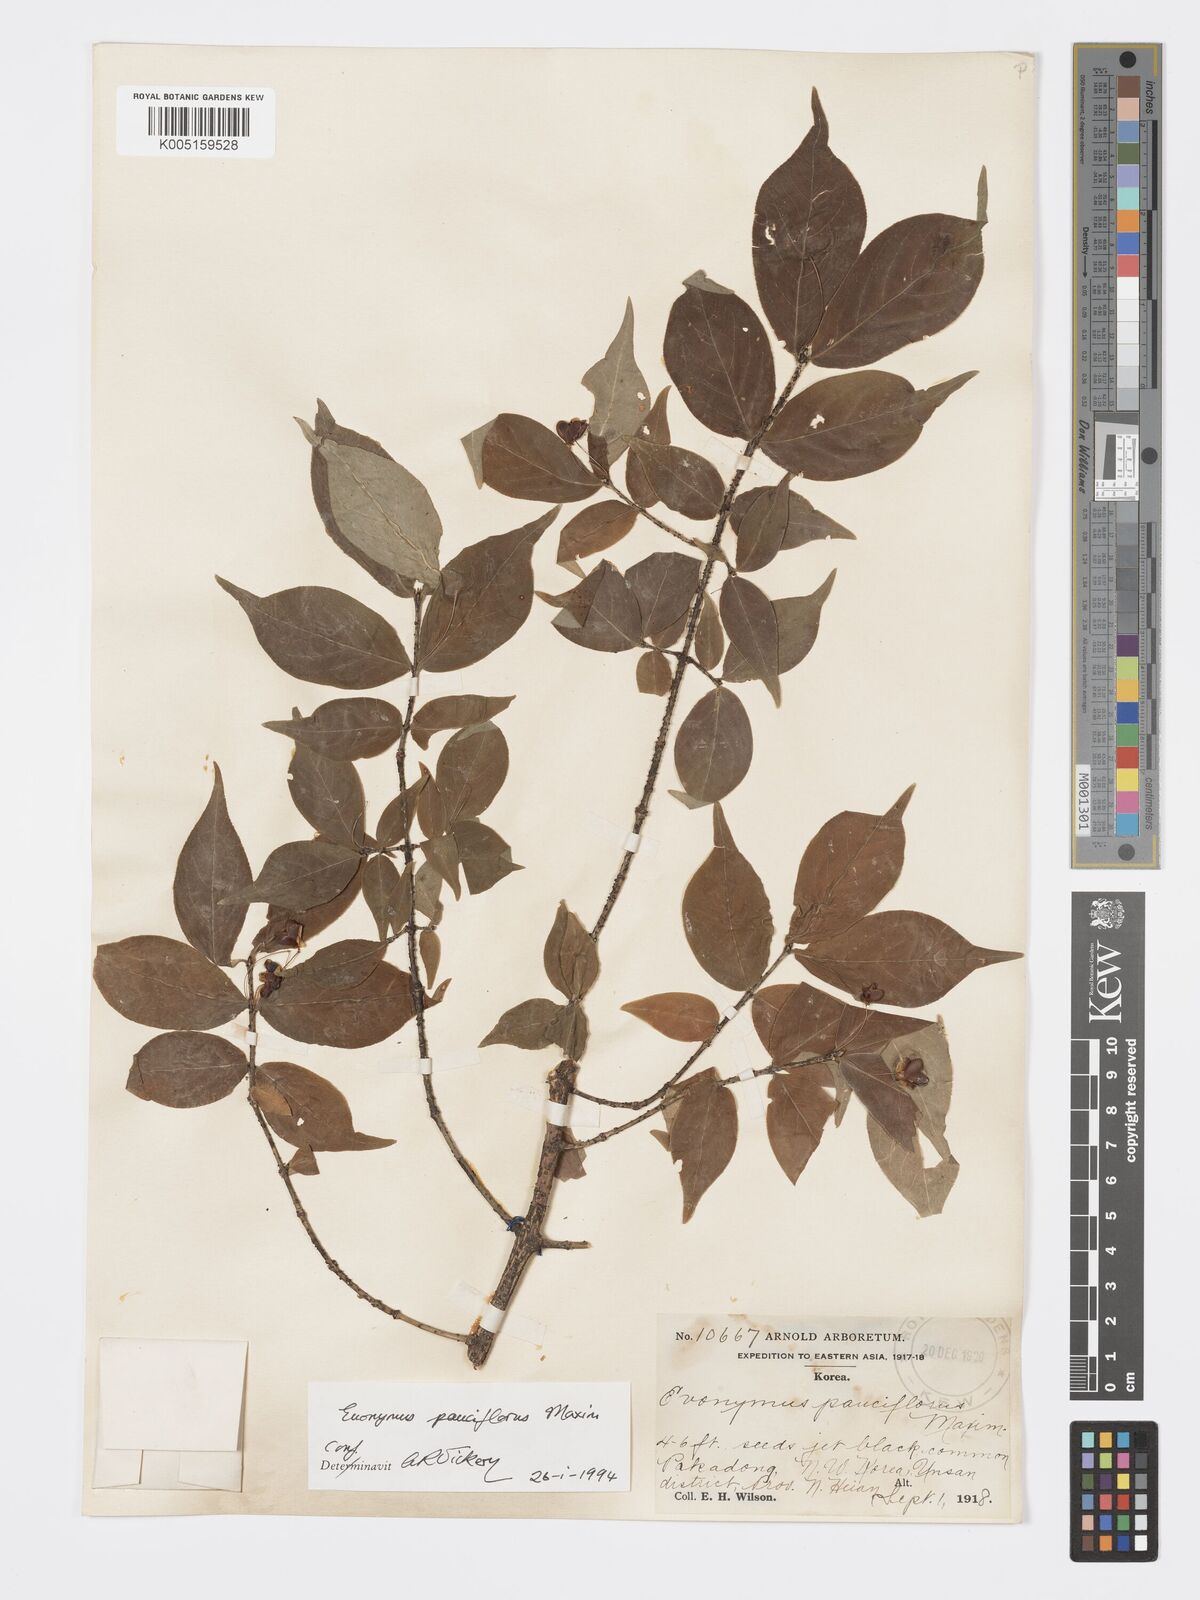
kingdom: Plantae
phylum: Tracheophyta
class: Magnoliopsida
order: Celastrales
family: Celastraceae
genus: Euonymus
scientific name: Euonymus verrucosus
